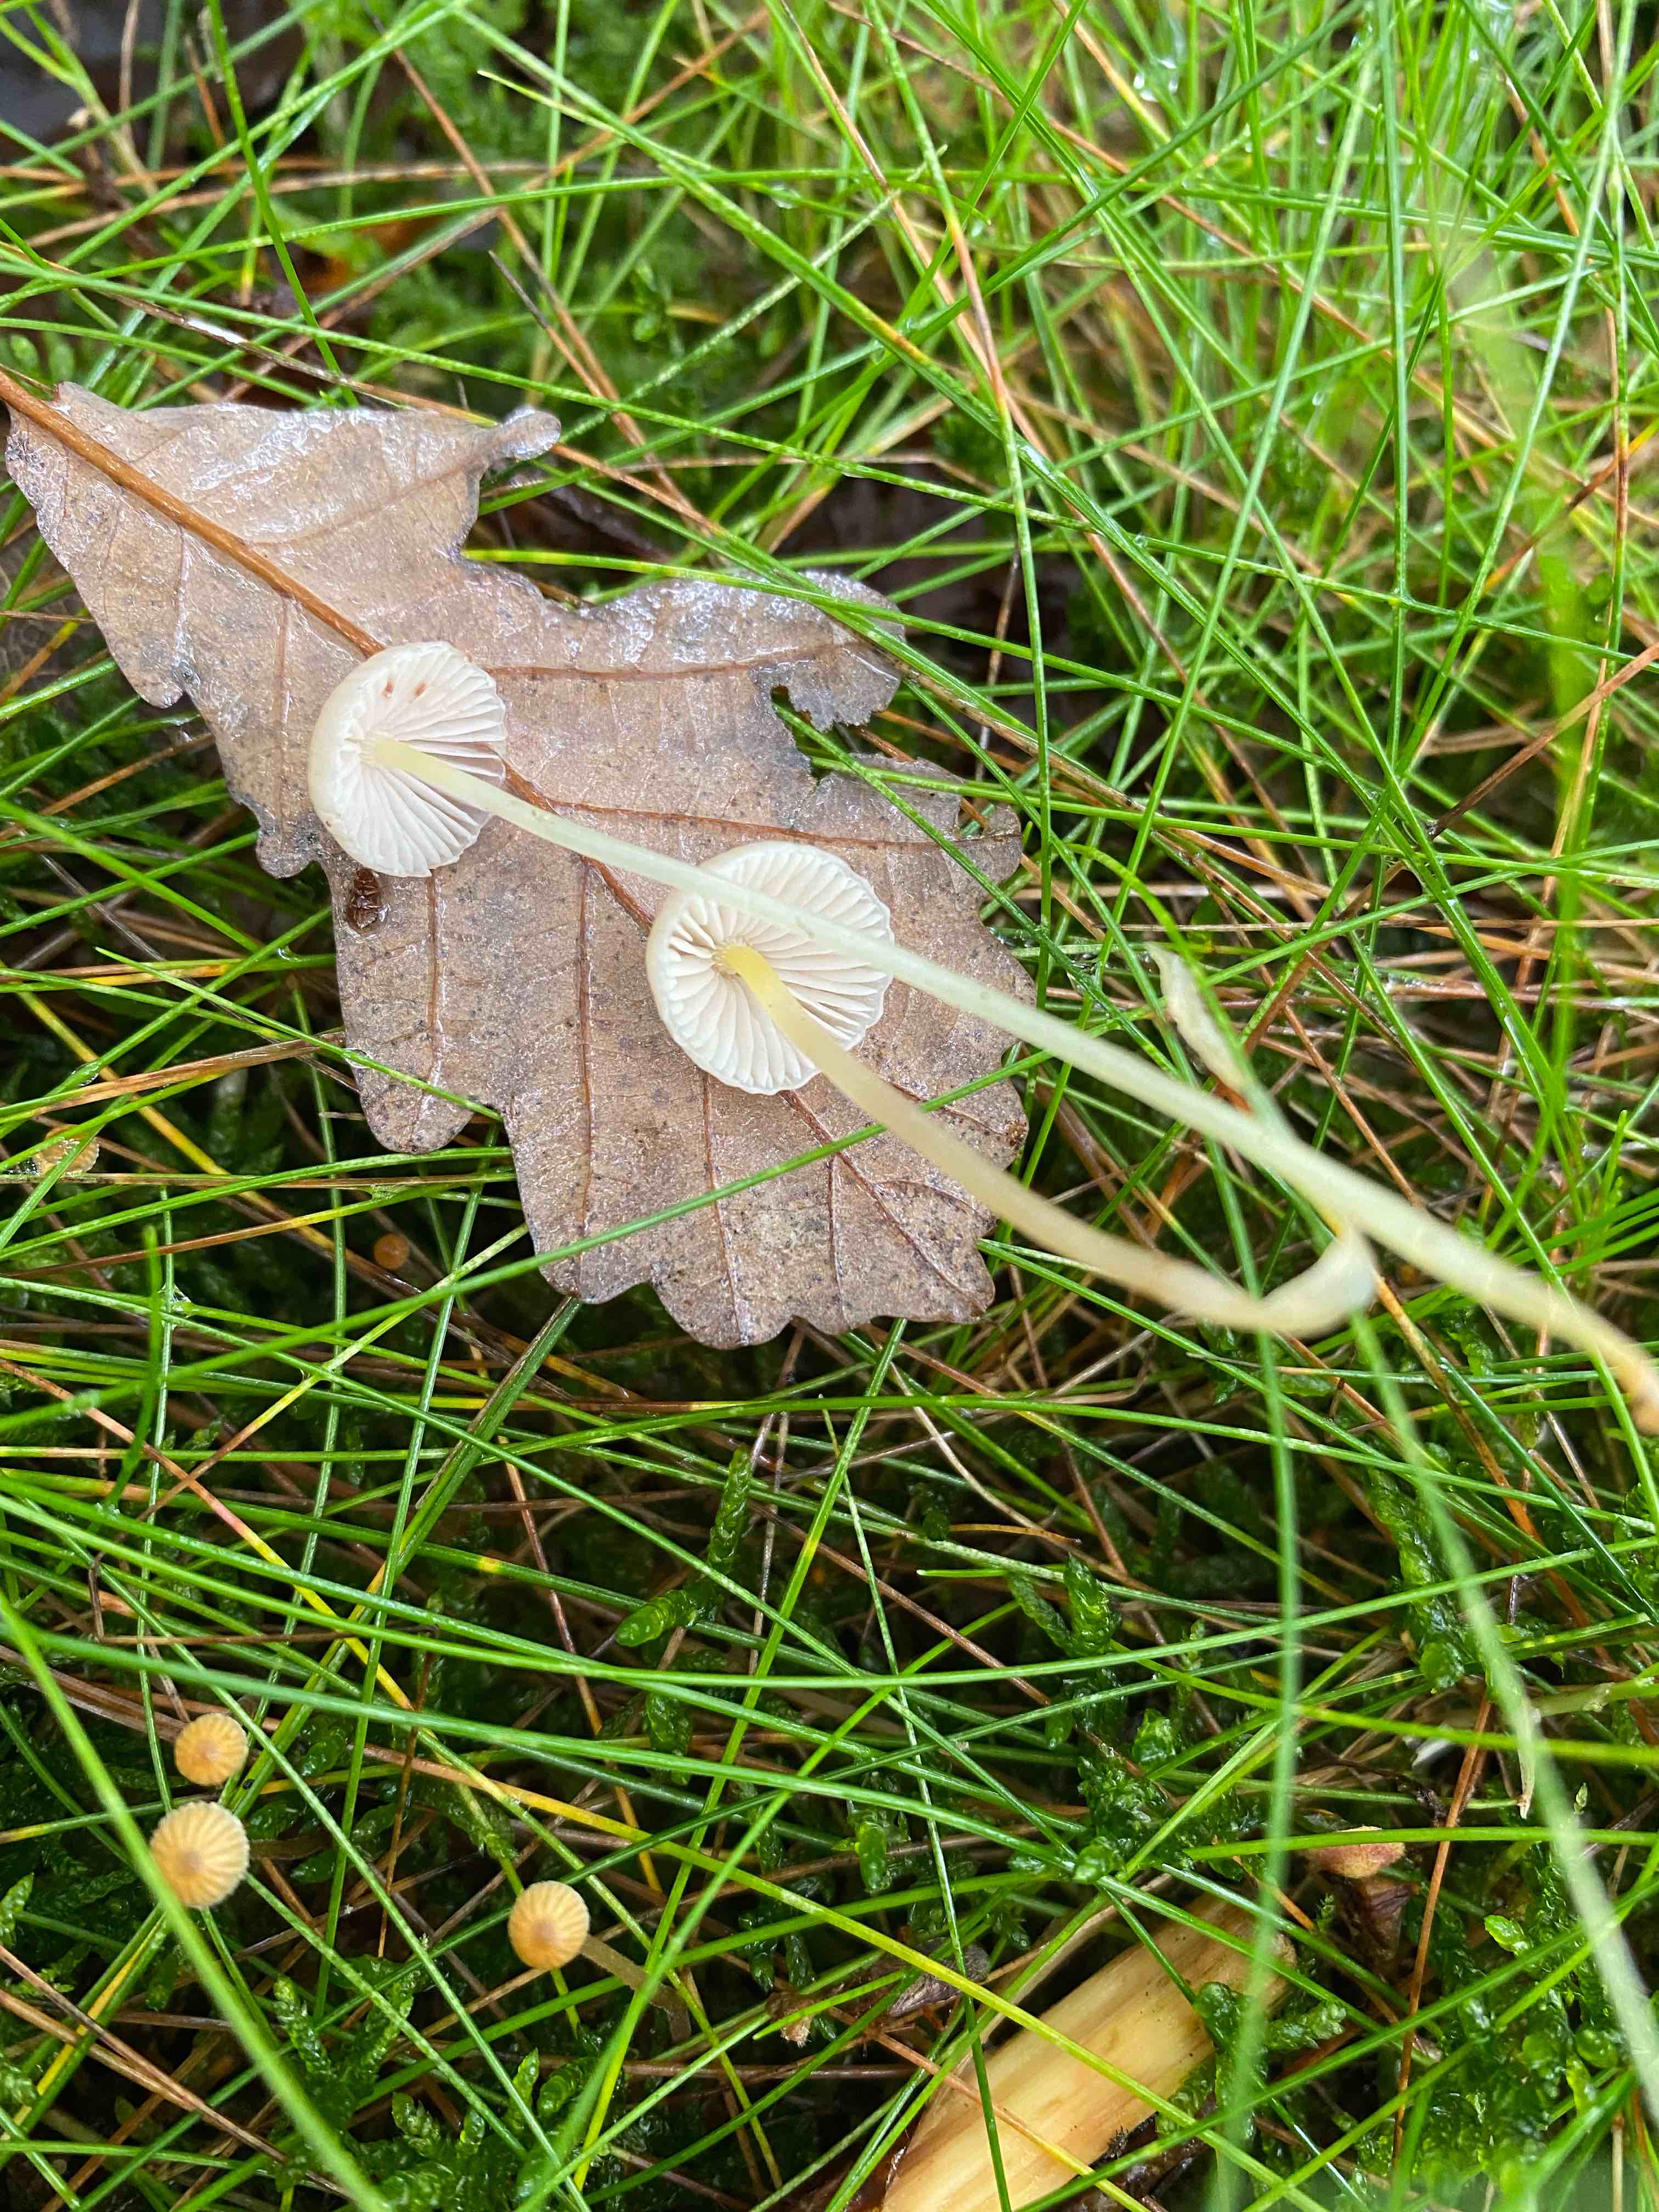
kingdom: Fungi
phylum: Basidiomycota
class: Agaricomycetes
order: Agaricales
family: Mycenaceae
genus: Mycena
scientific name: Mycena epipterygia
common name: gulstokket huesvamp
